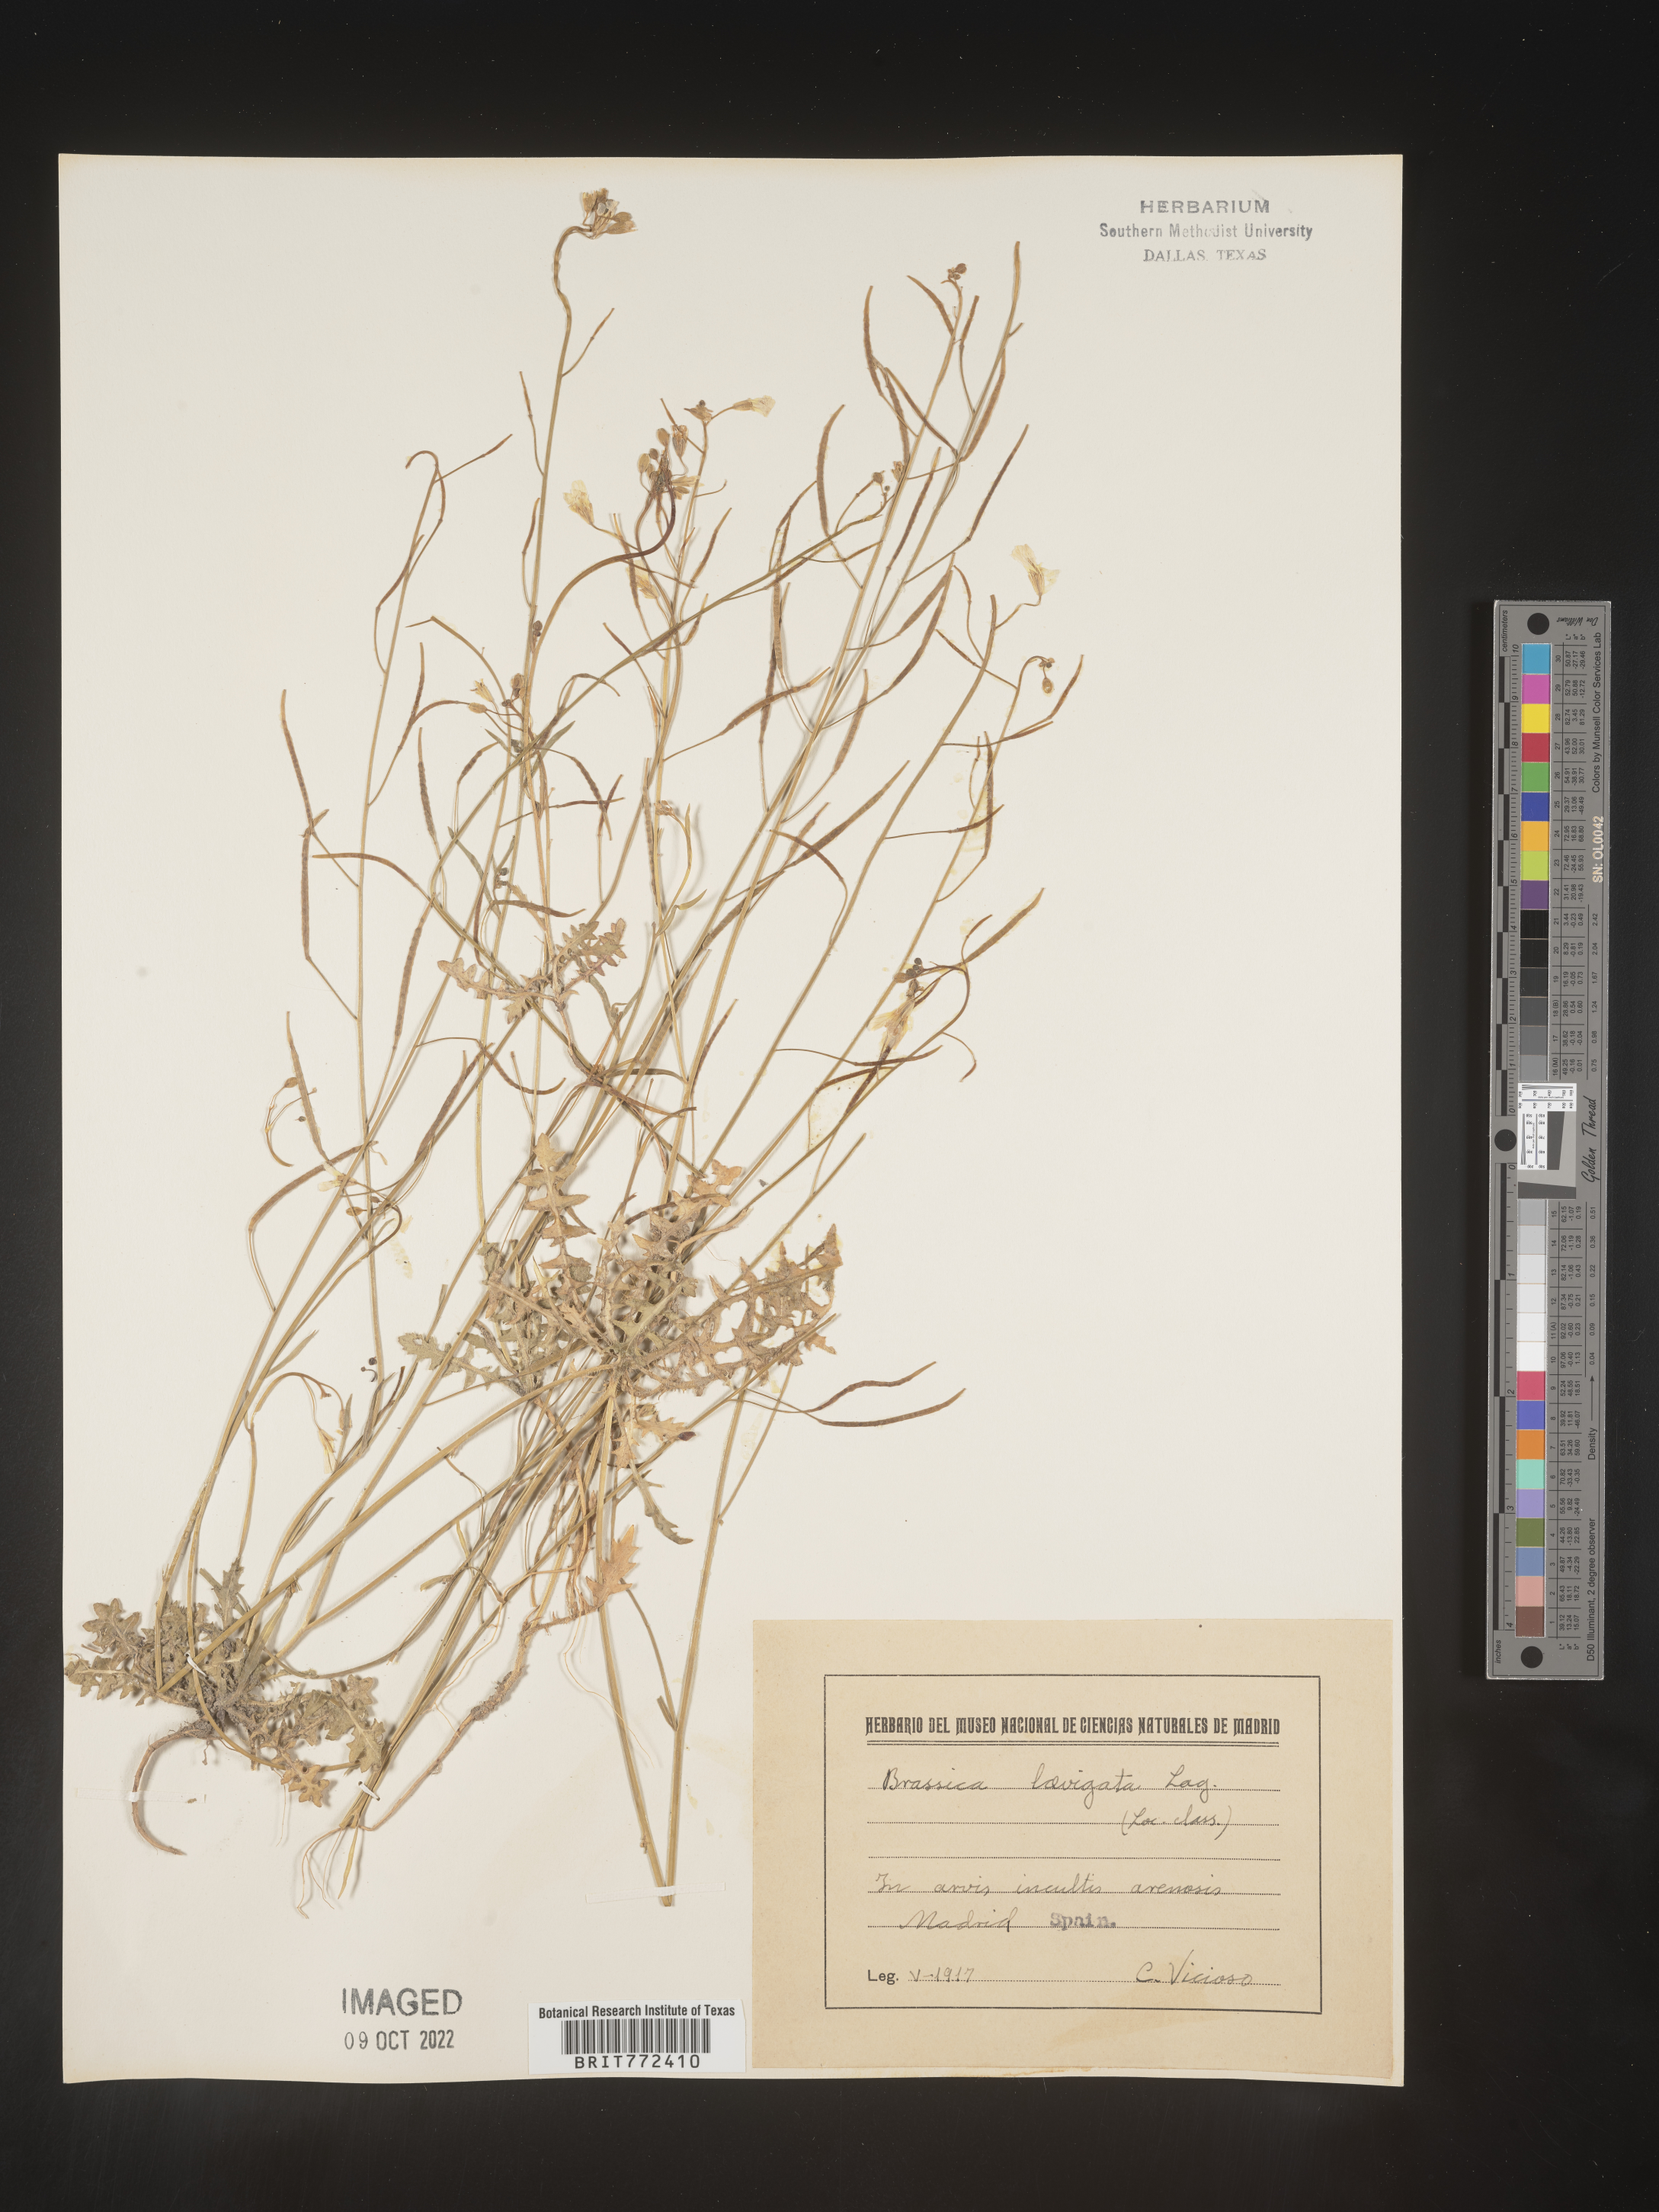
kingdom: Plantae
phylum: Tracheophyta
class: Magnoliopsida
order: Brassicales
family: Brassicaceae
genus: Brassica
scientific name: Brassica
